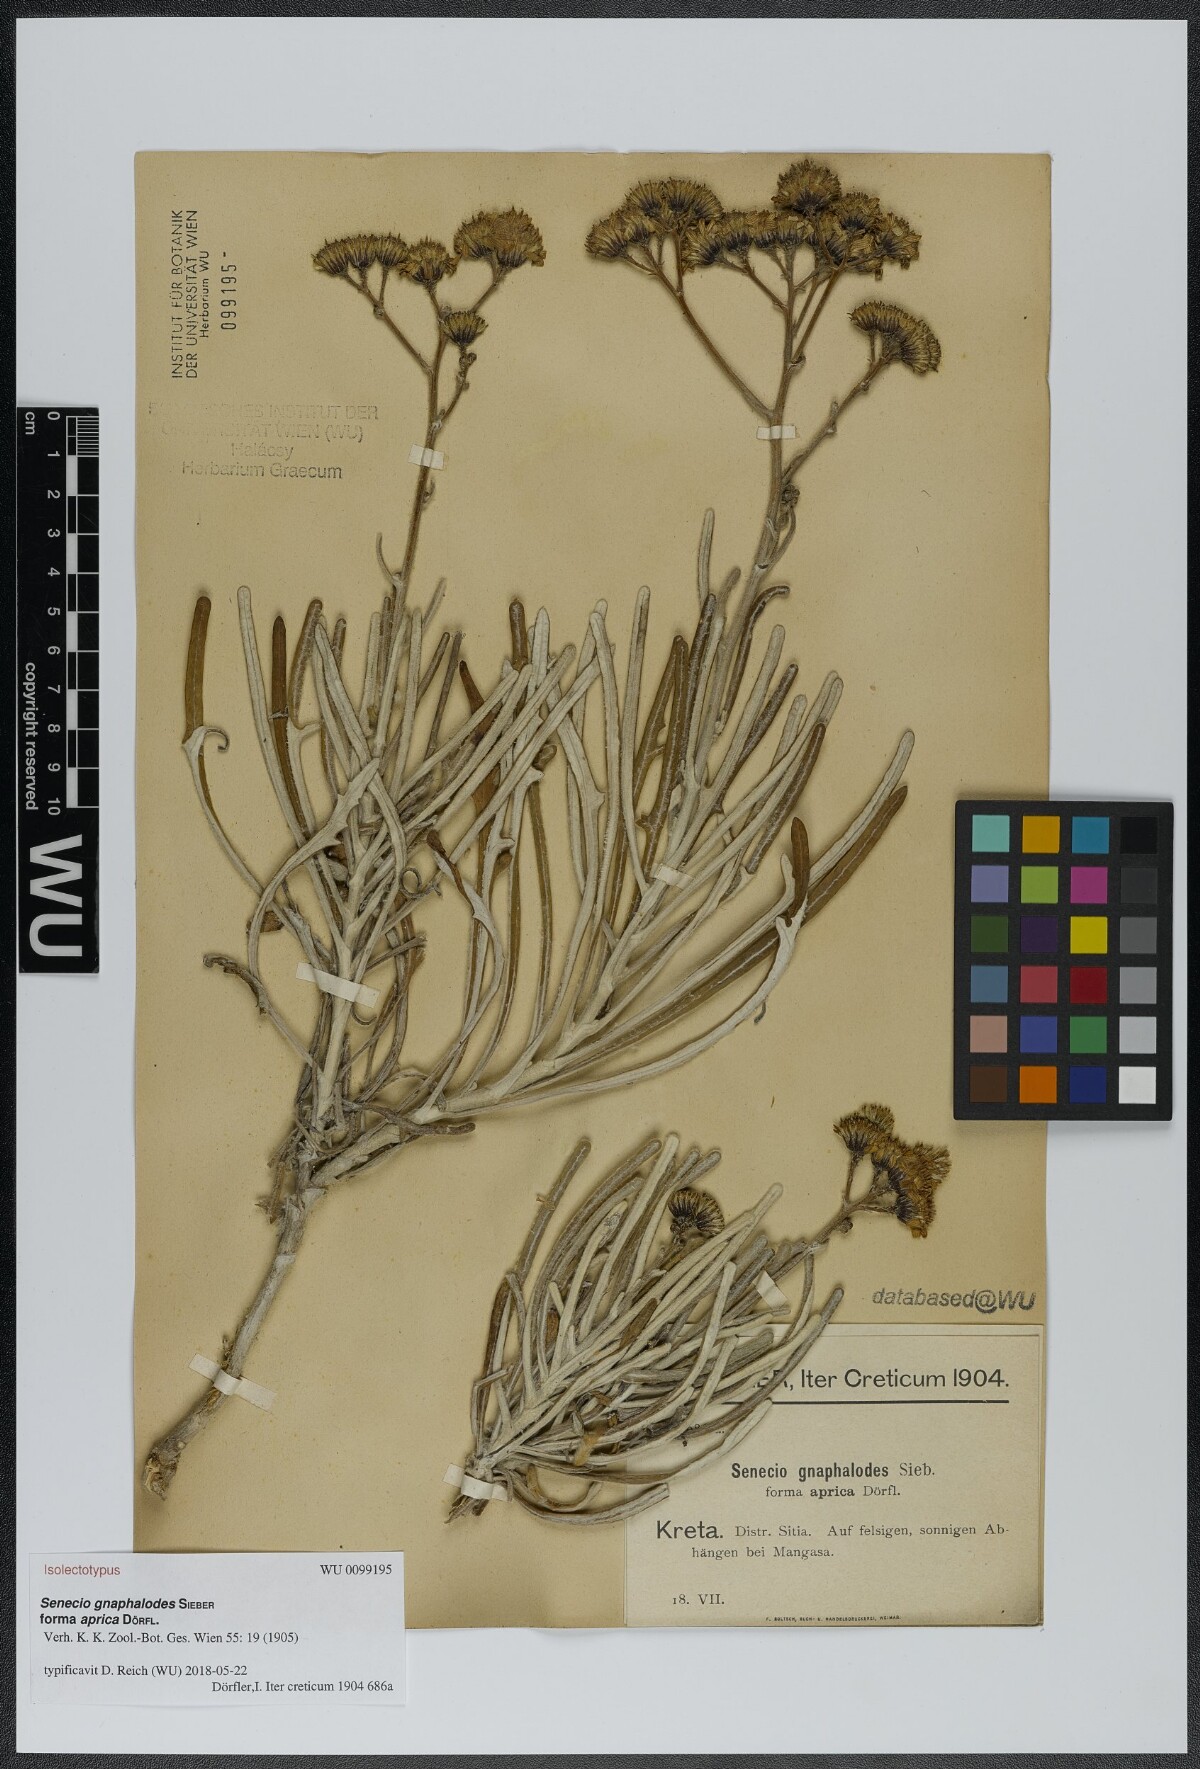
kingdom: Plantae
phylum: Tracheophyta
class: Magnoliopsida
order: Asterales
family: Asteraceae
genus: Jacobaea
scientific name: Jacobaea gnaphalioides
